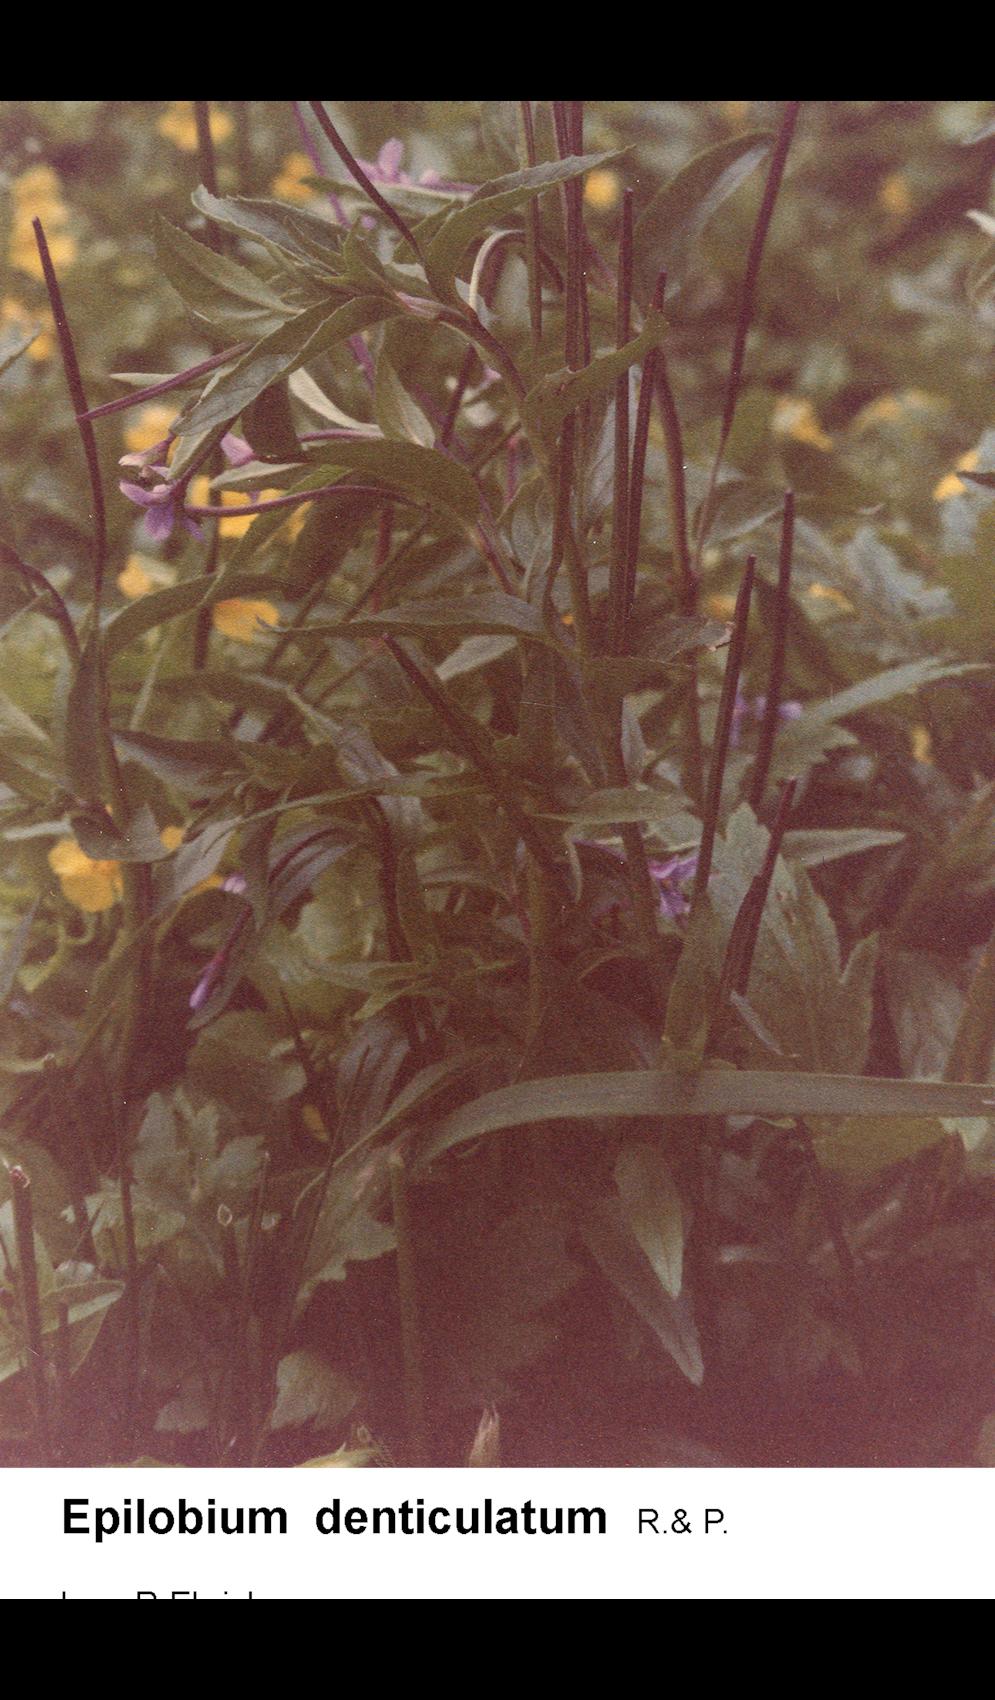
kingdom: Plantae
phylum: Tracheophyta
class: Magnoliopsida
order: Myrtales
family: Onagraceae
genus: Epilobium
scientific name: Epilobium denticulatum
